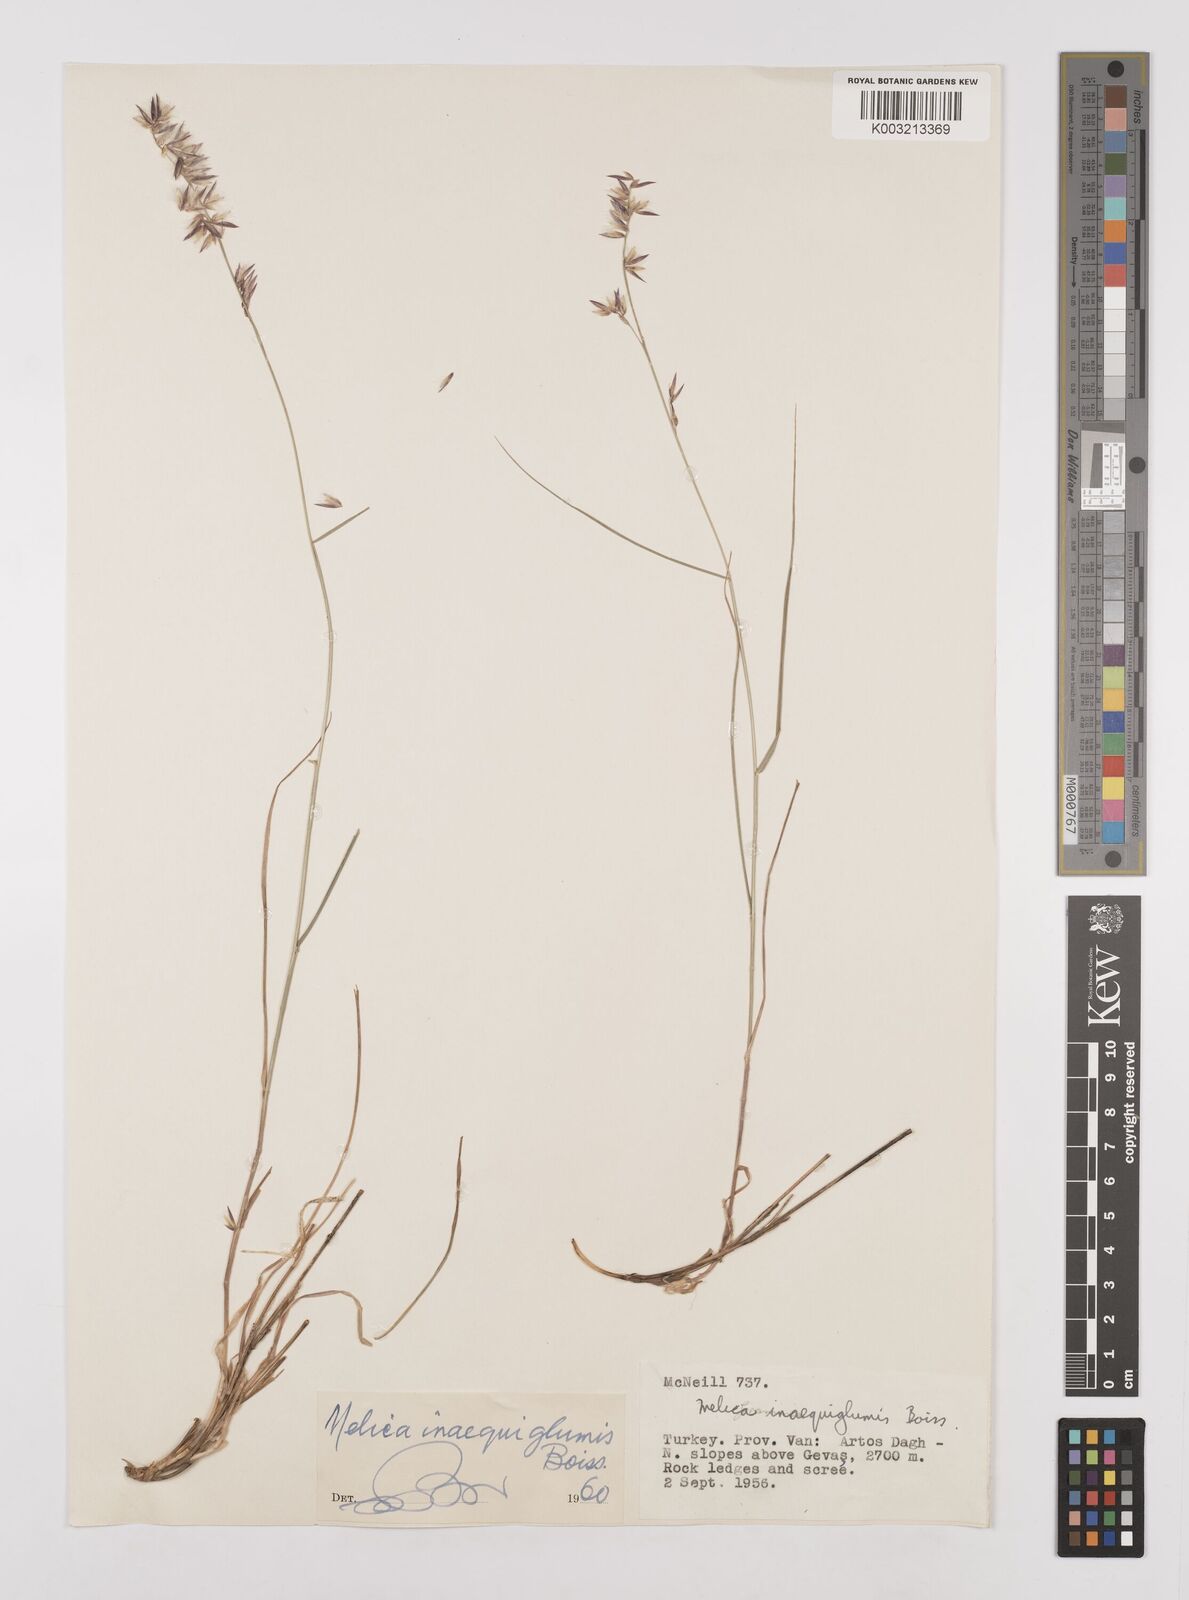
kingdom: Plantae
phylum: Tracheophyta
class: Liliopsida
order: Poales
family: Poaceae
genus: Melica
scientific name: Melica persica
